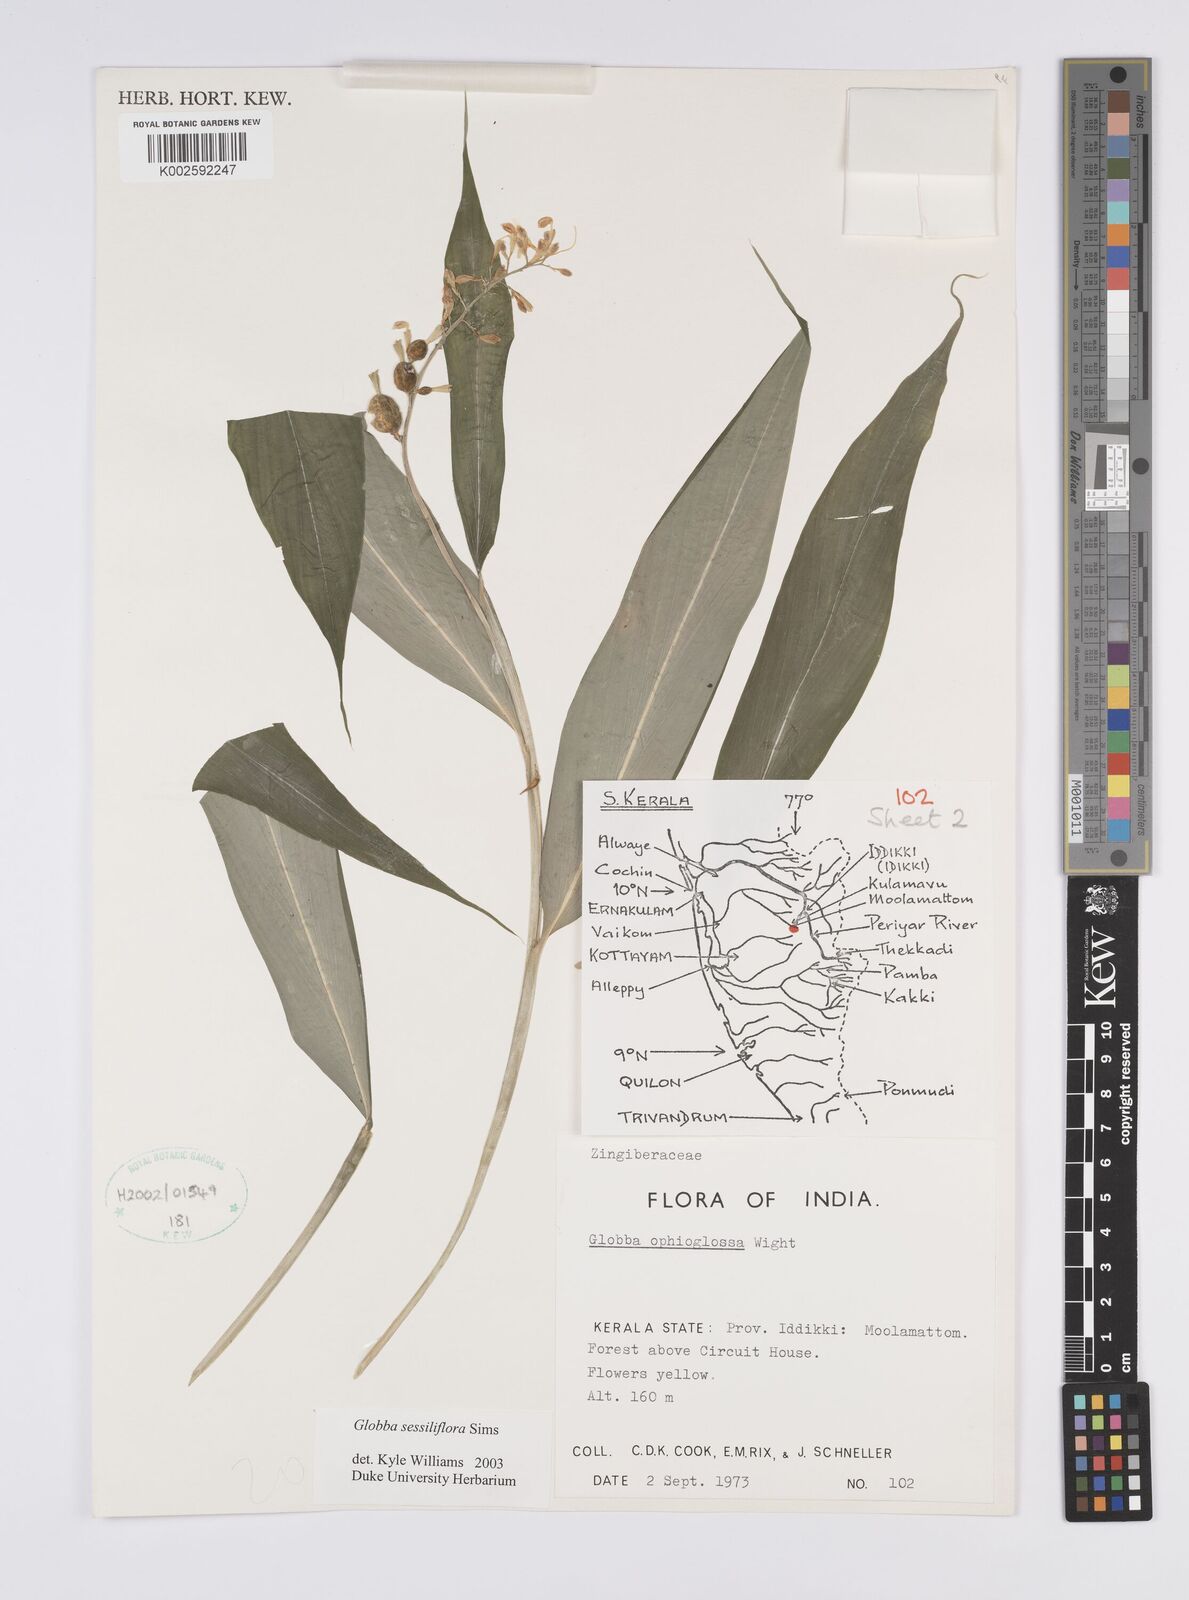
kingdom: Plantae
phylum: Tracheophyta
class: Liliopsida
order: Zingiberales
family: Zingiberaceae
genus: Globba
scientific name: Globba sessiliflora
